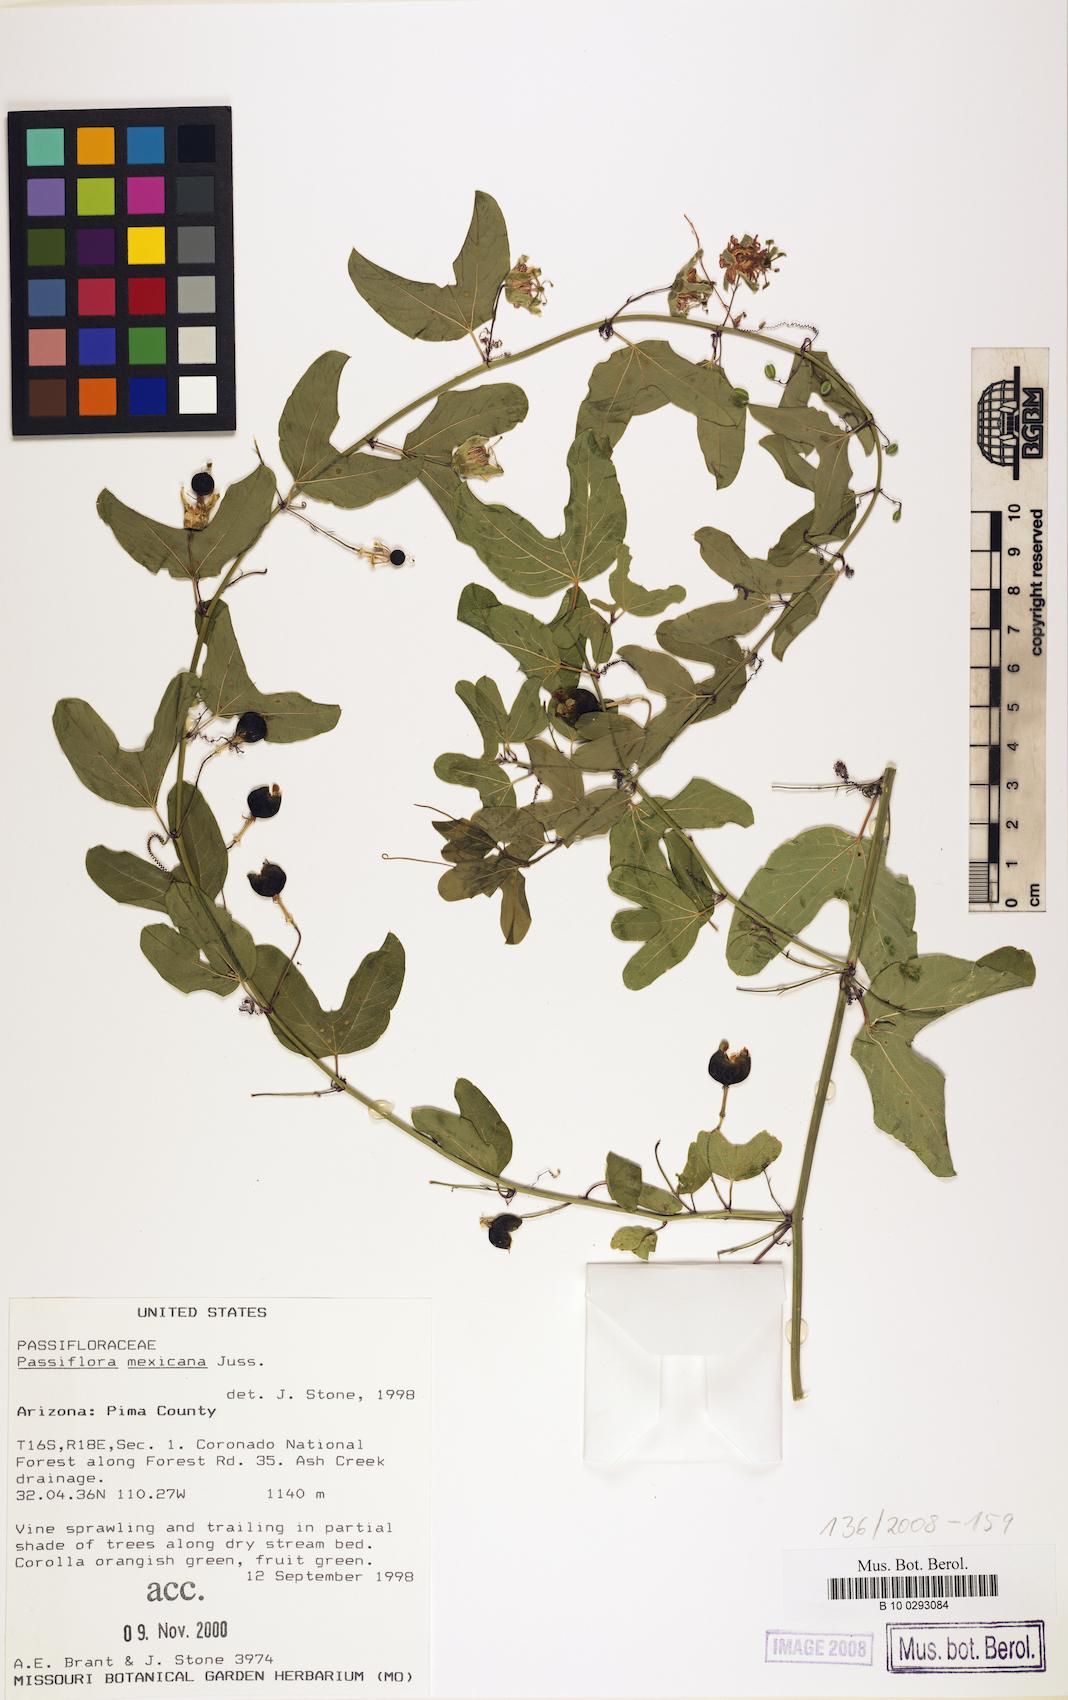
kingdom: Plantae
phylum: Tracheophyta
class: Magnoliopsida
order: Malpighiales
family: Passifloraceae
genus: Passiflora
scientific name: Passiflora mexicana
